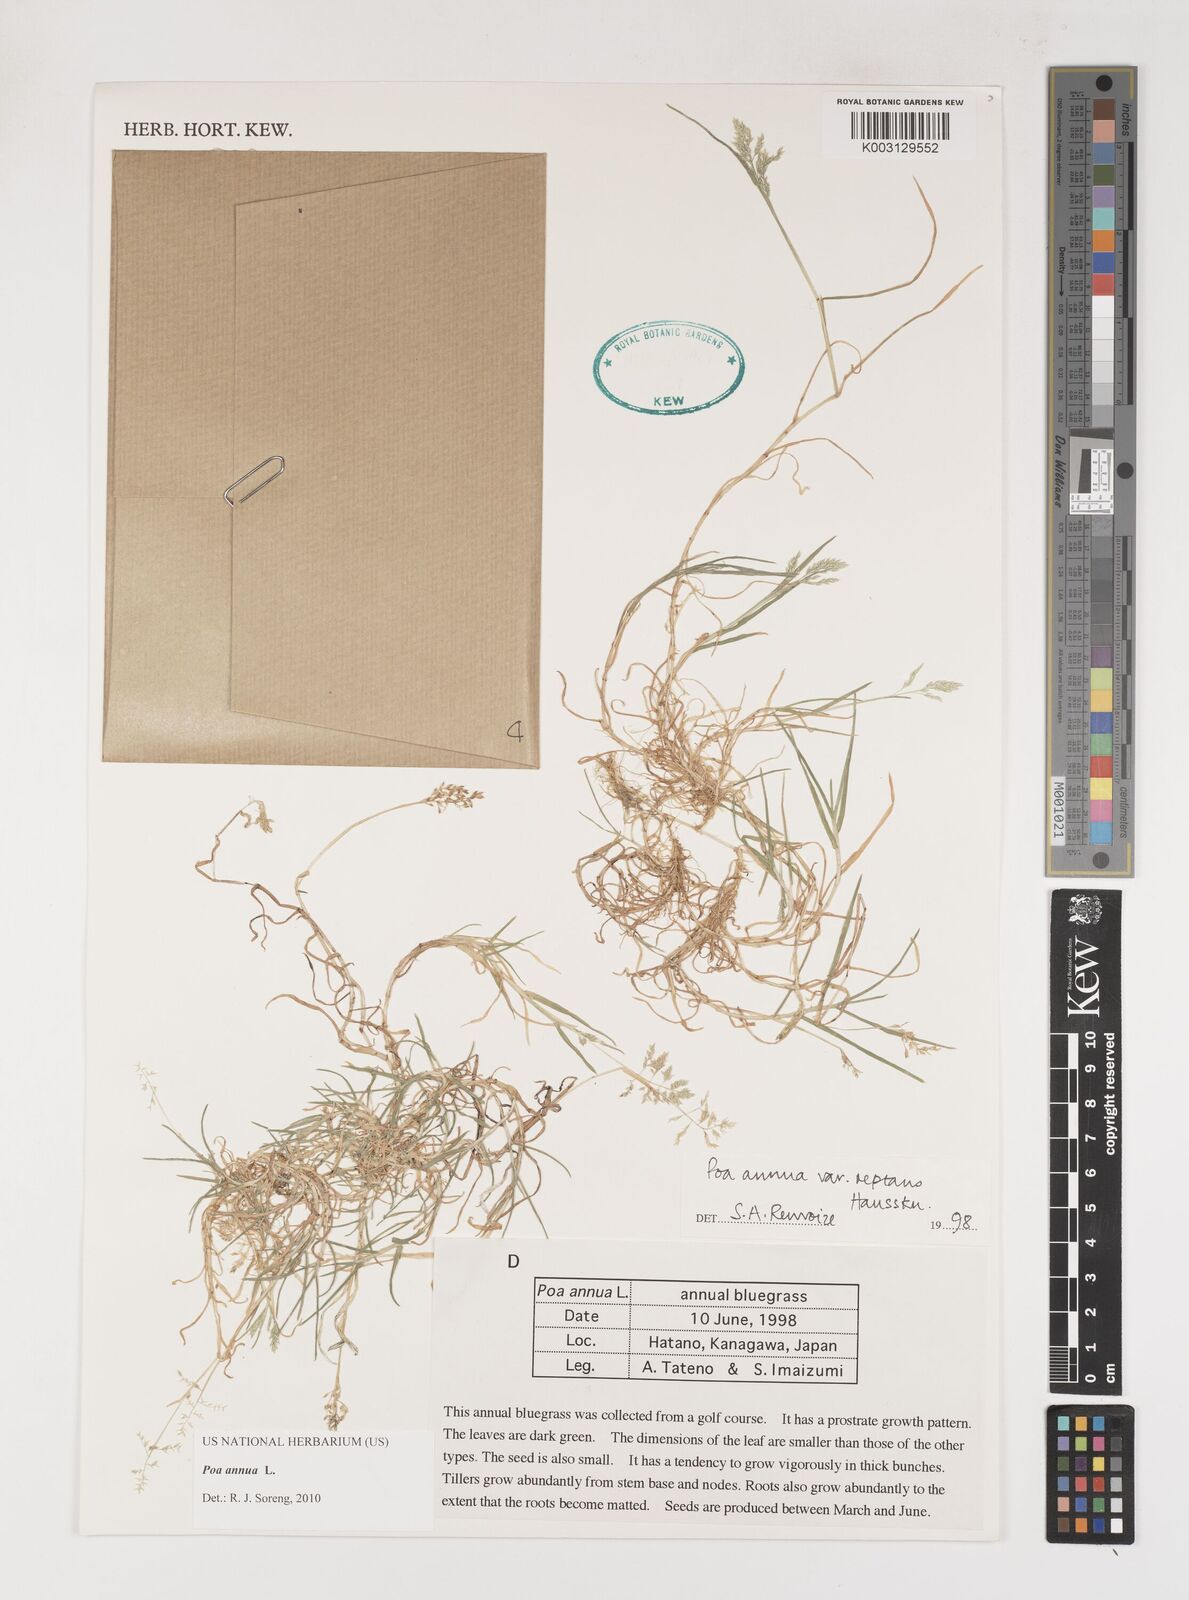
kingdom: Plantae
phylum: Tracheophyta
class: Liliopsida
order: Poales
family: Poaceae
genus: Poa
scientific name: Poa annua
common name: Annual bluegrass
